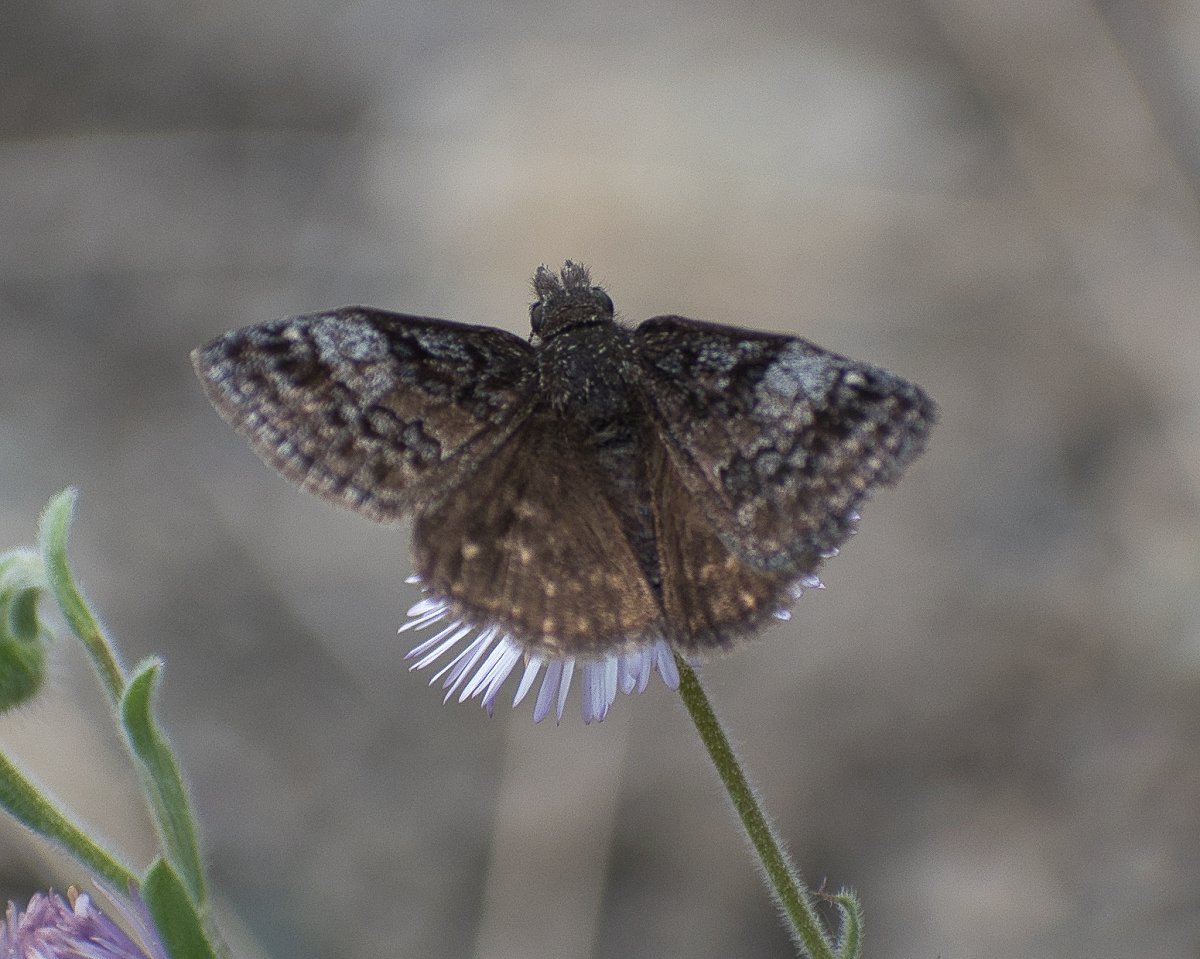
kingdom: Animalia
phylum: Arthropoda
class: Insecta
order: Lepidoptera
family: Hesperiidae
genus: Erynnis
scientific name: Erynnis icelus
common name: Dreamy Duskywing
